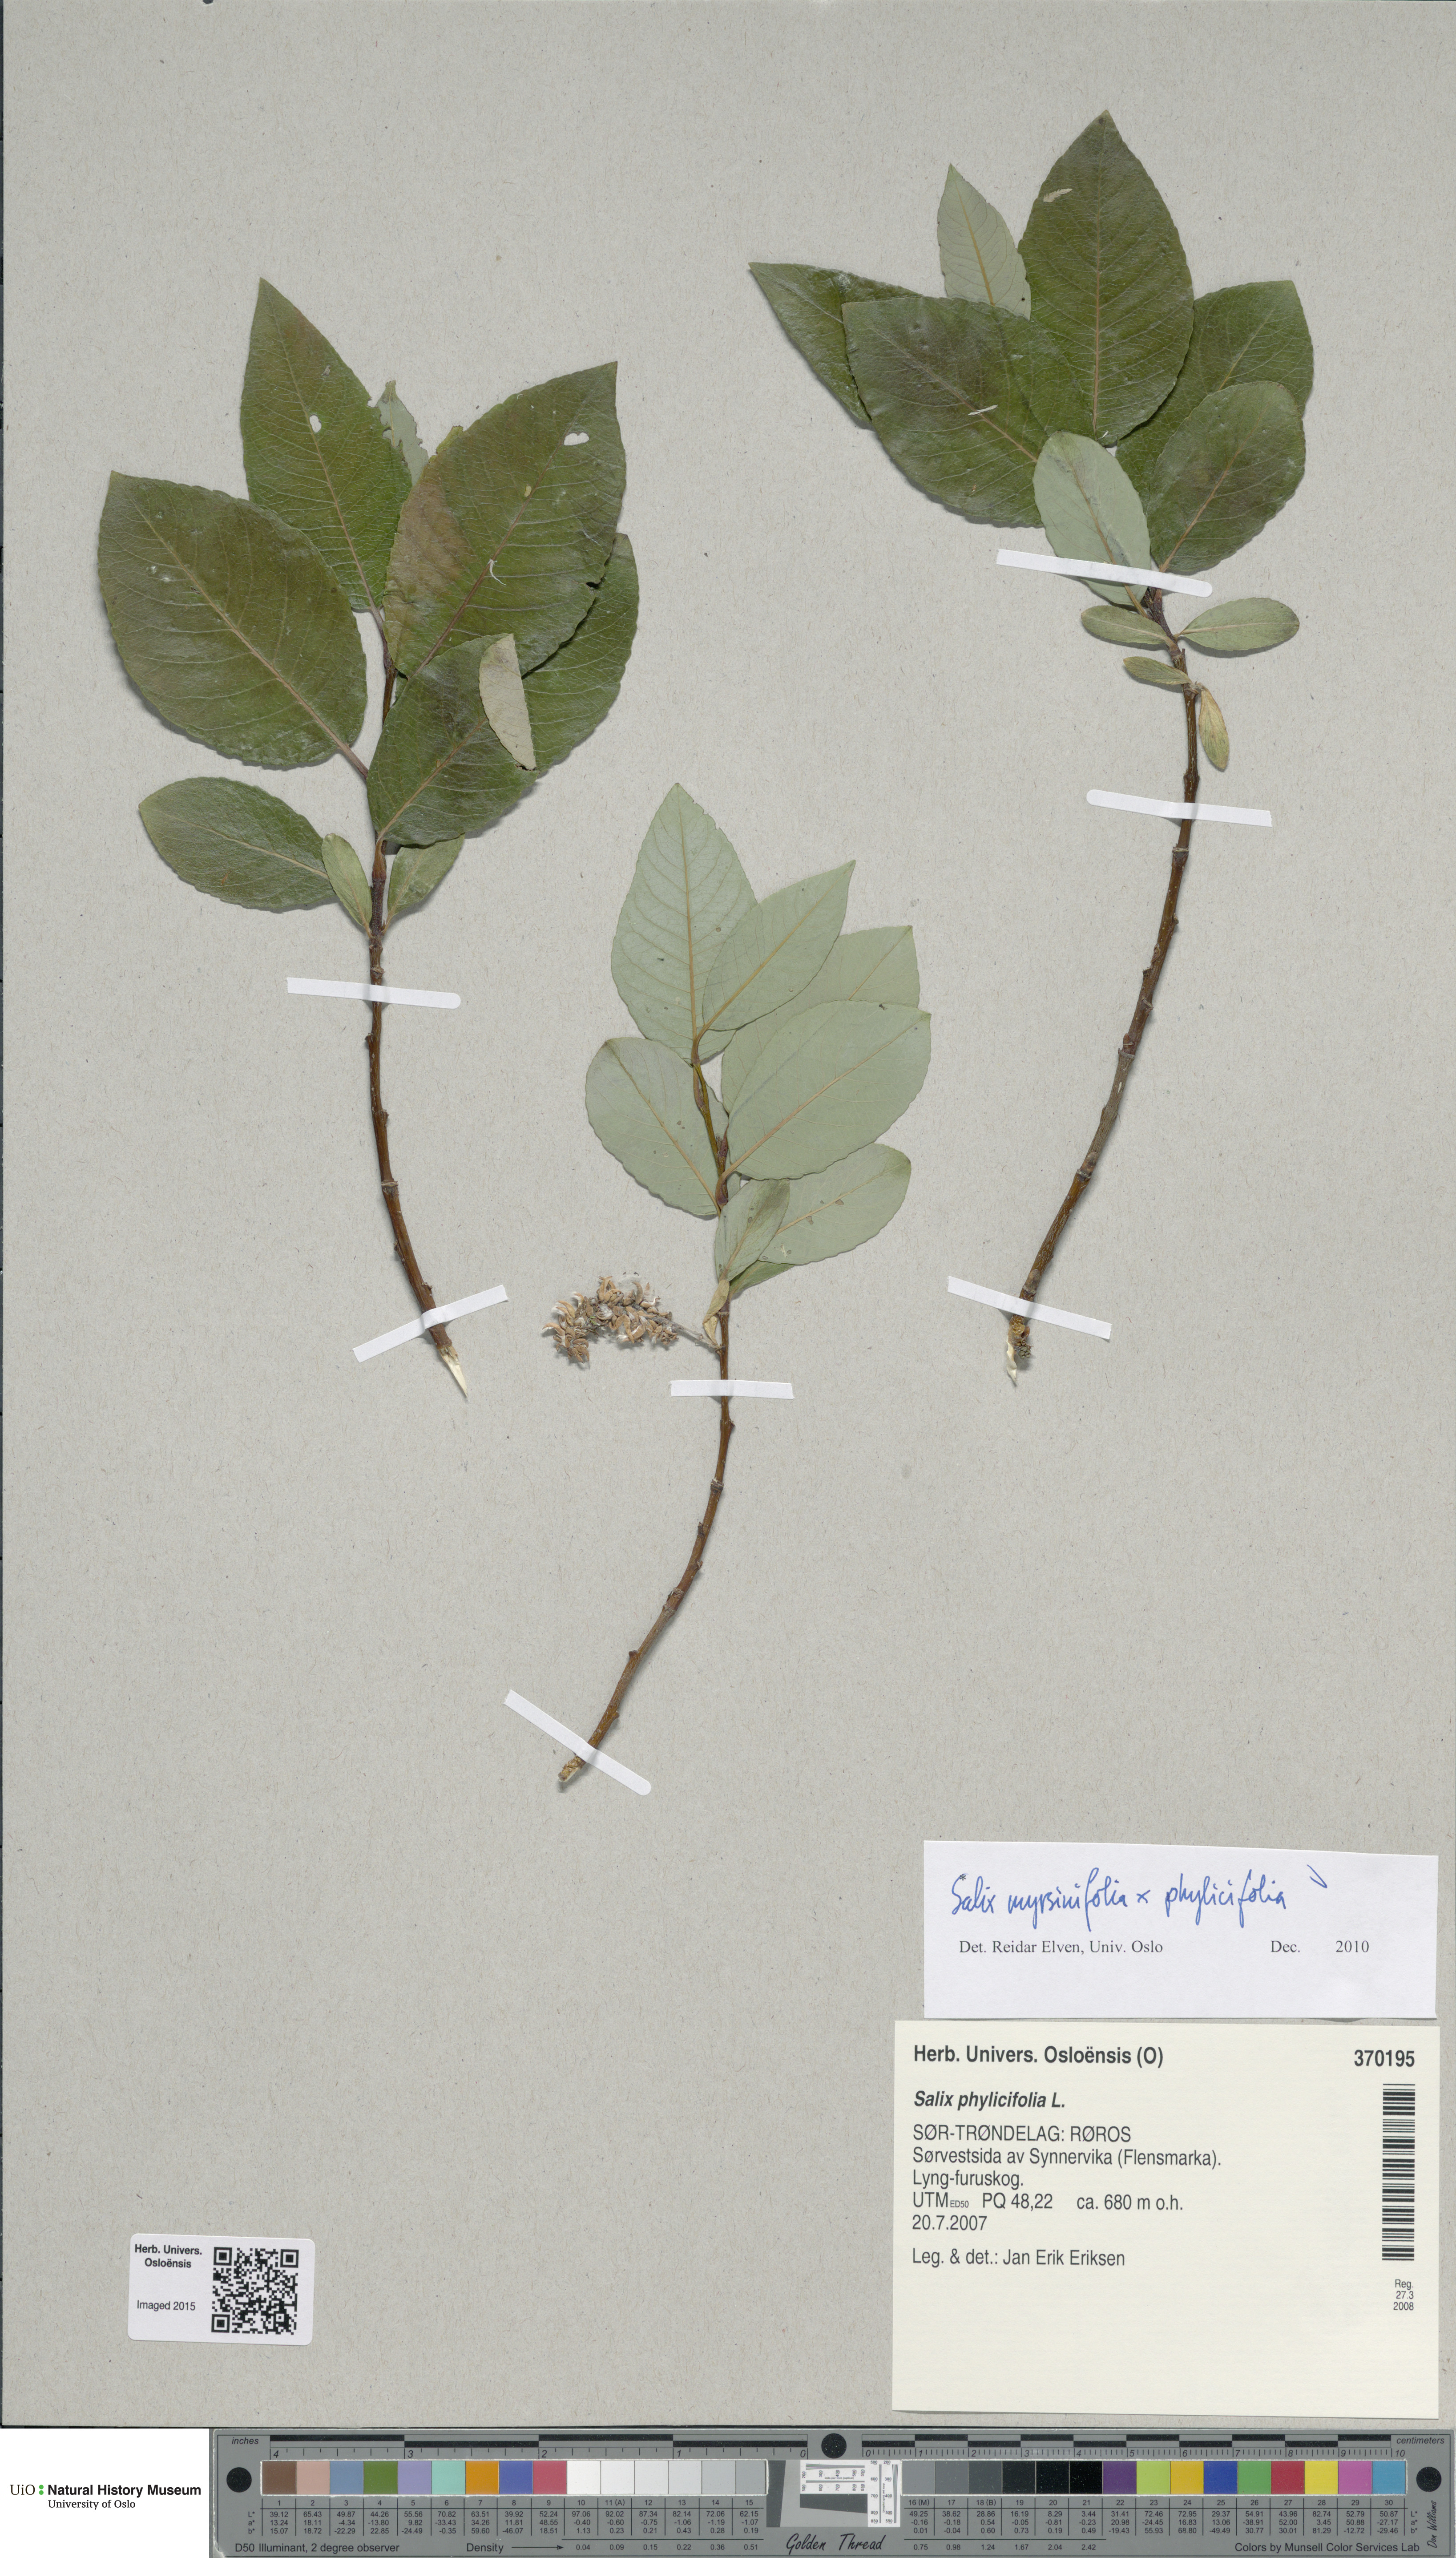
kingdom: Plantae
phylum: Tracheophyta
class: Magnoliopsida
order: Malpighiales
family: Salicaceae
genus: Salix
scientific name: Salix
